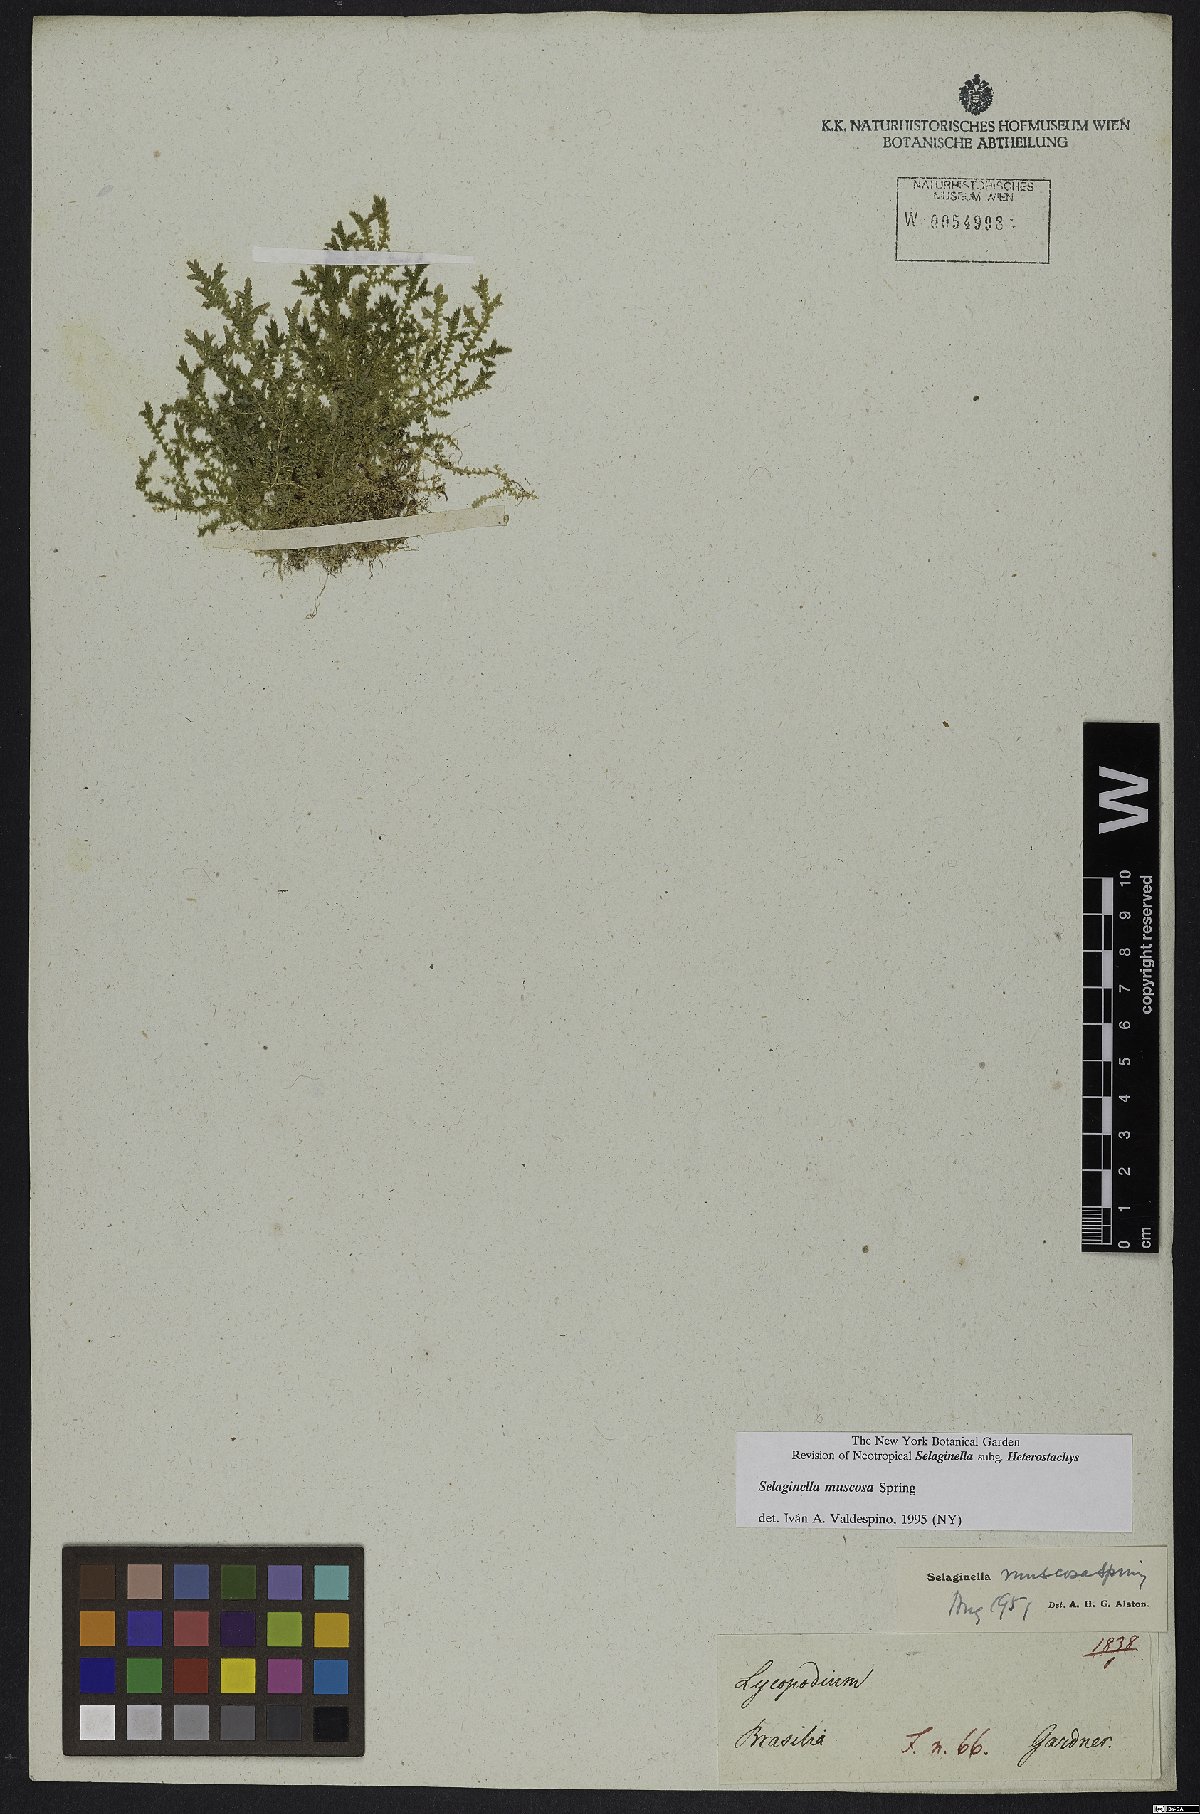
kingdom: Plantae
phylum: Tracheophyta
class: Lycopodiopsida
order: Selaginellales
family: Selaginellaceae
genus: Selaginella
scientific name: Selaginella muscosa
